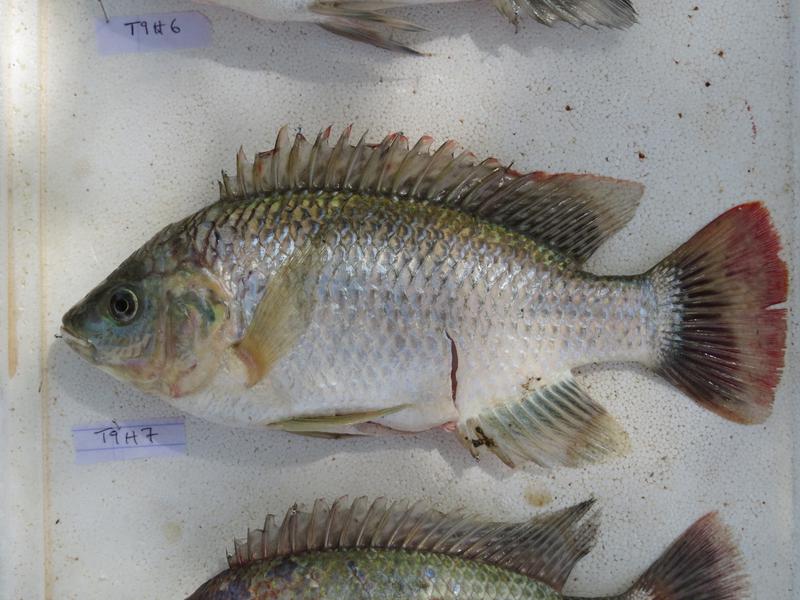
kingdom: Animalia
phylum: Chordata
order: Perciformes
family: Cichlidae
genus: Oreochromis
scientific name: Oreochromis rukwaensis
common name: Lake rukwa tilapia
